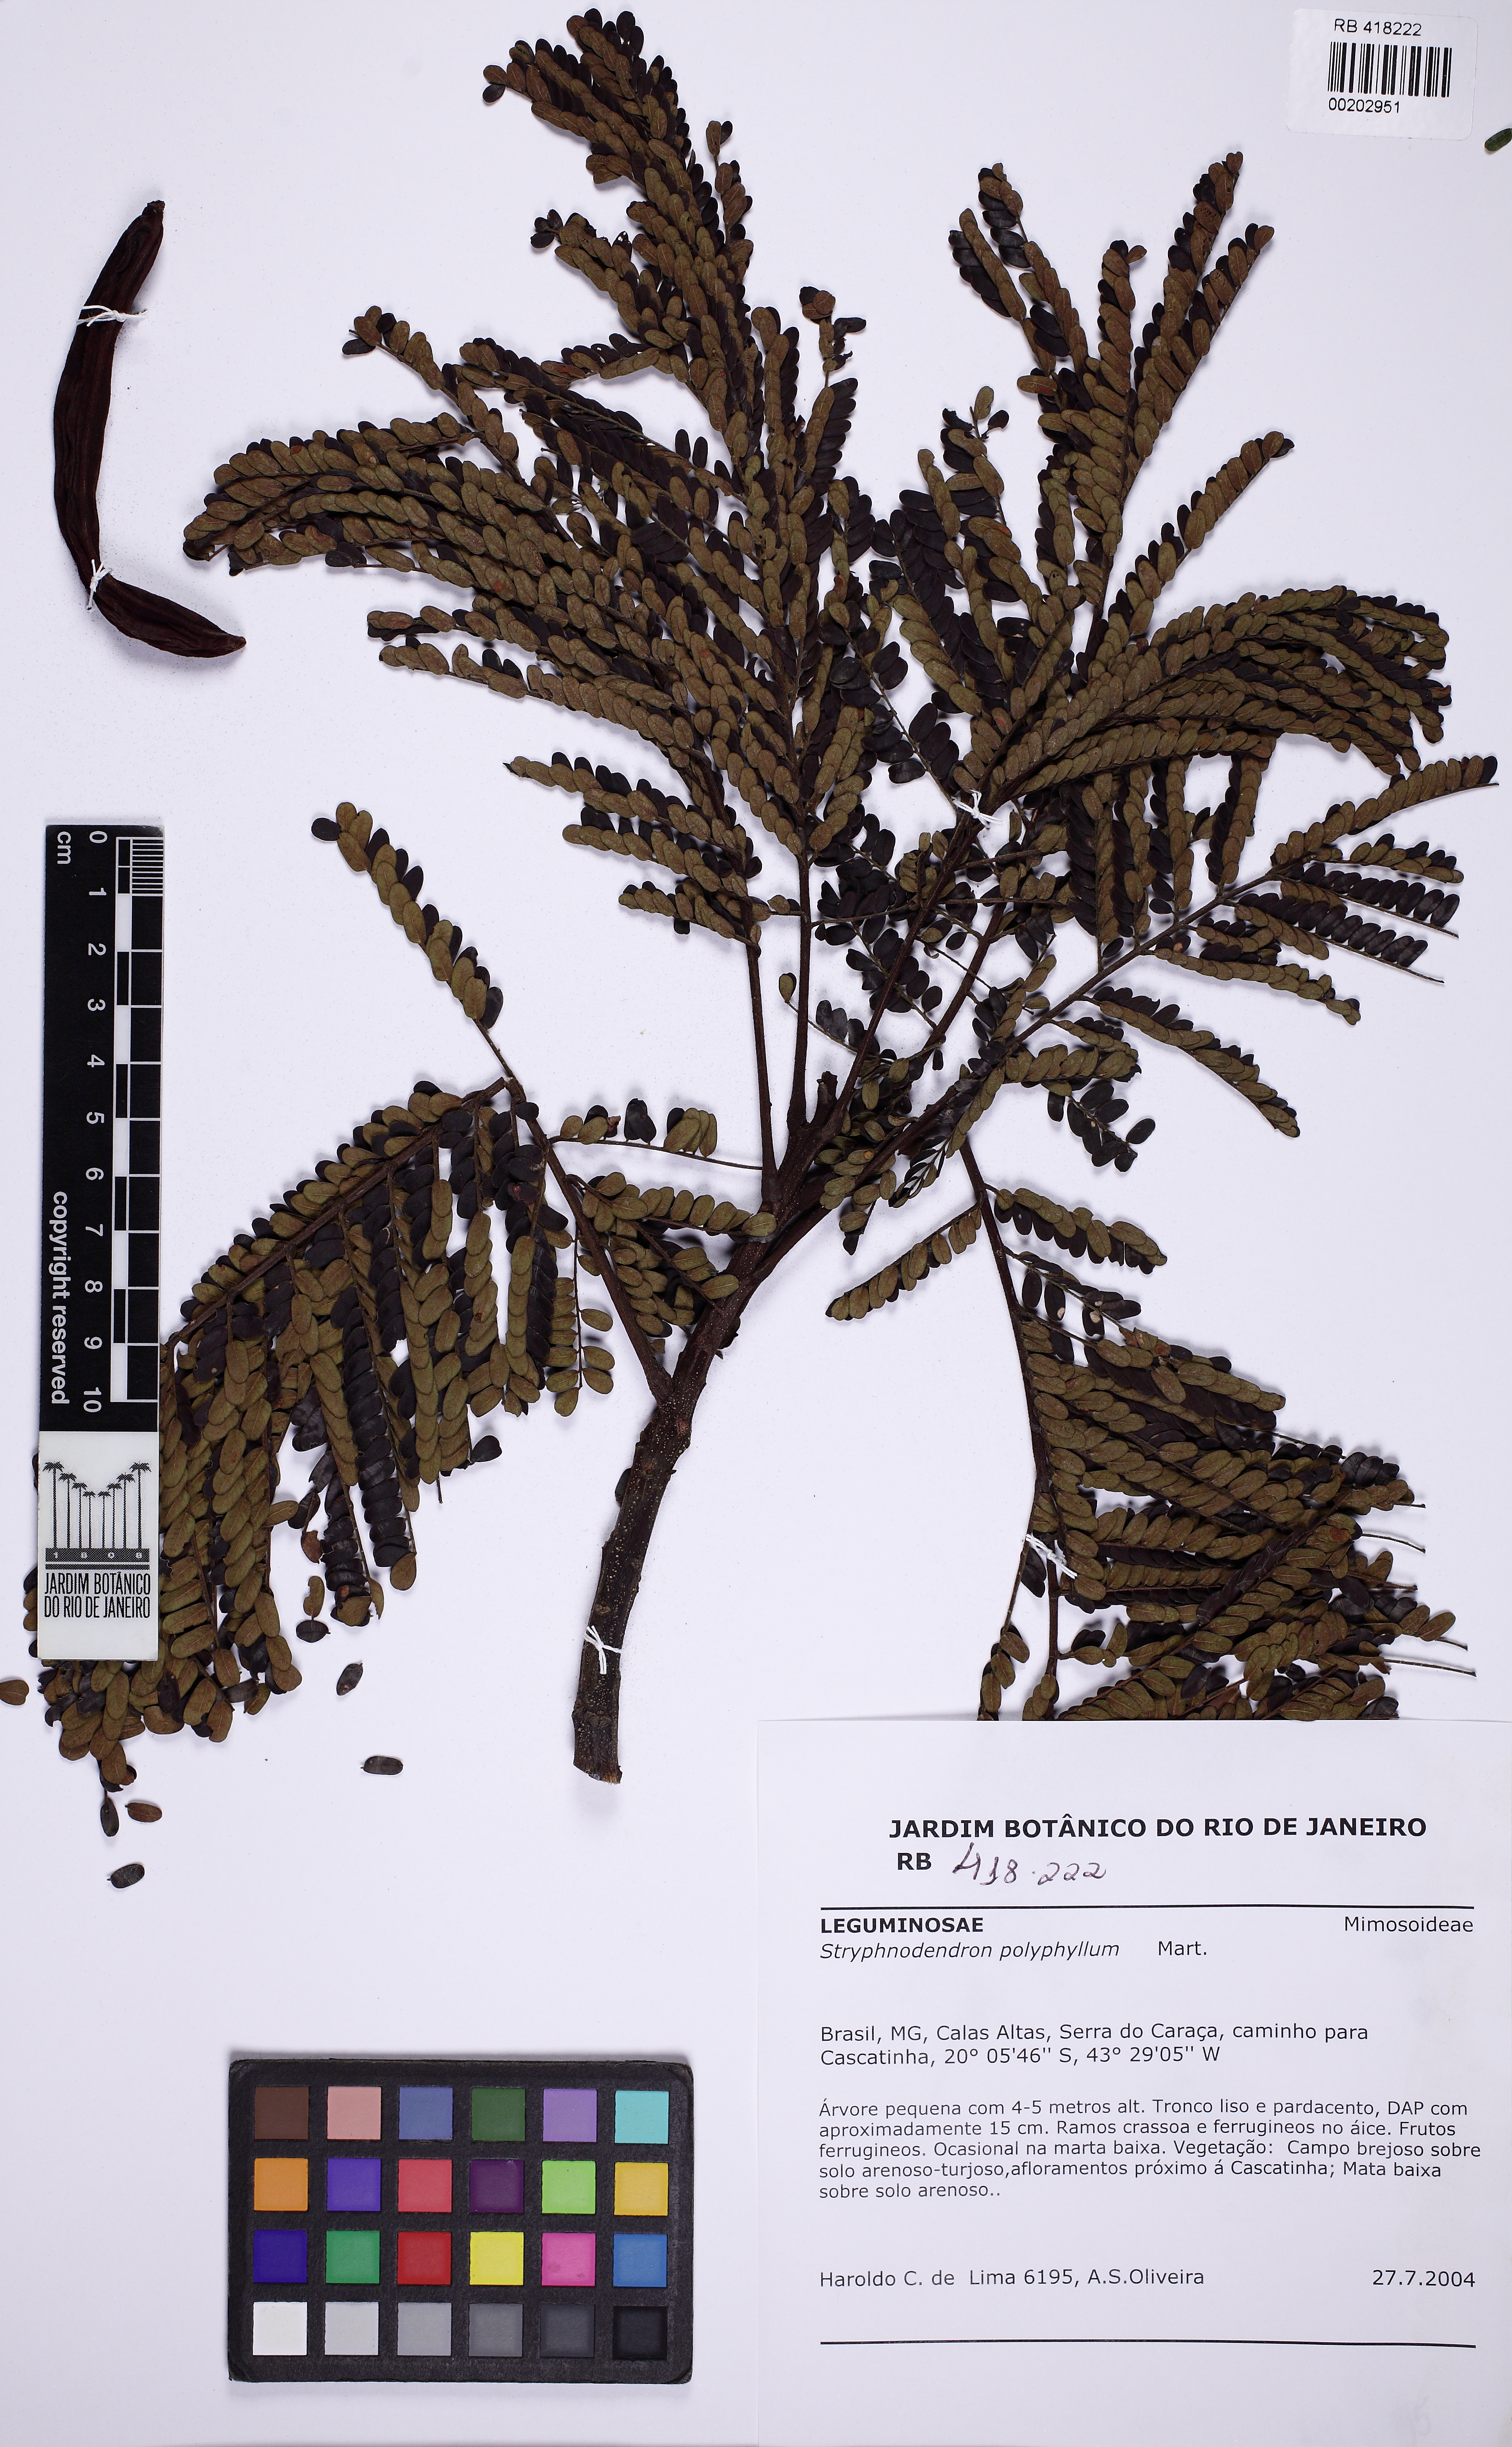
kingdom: Plantae
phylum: Tracheophyta
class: Magnoliopsida
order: Fabales
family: Fabaceae
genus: Stryphnodendron
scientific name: Stryphnodendron polyphyllum
